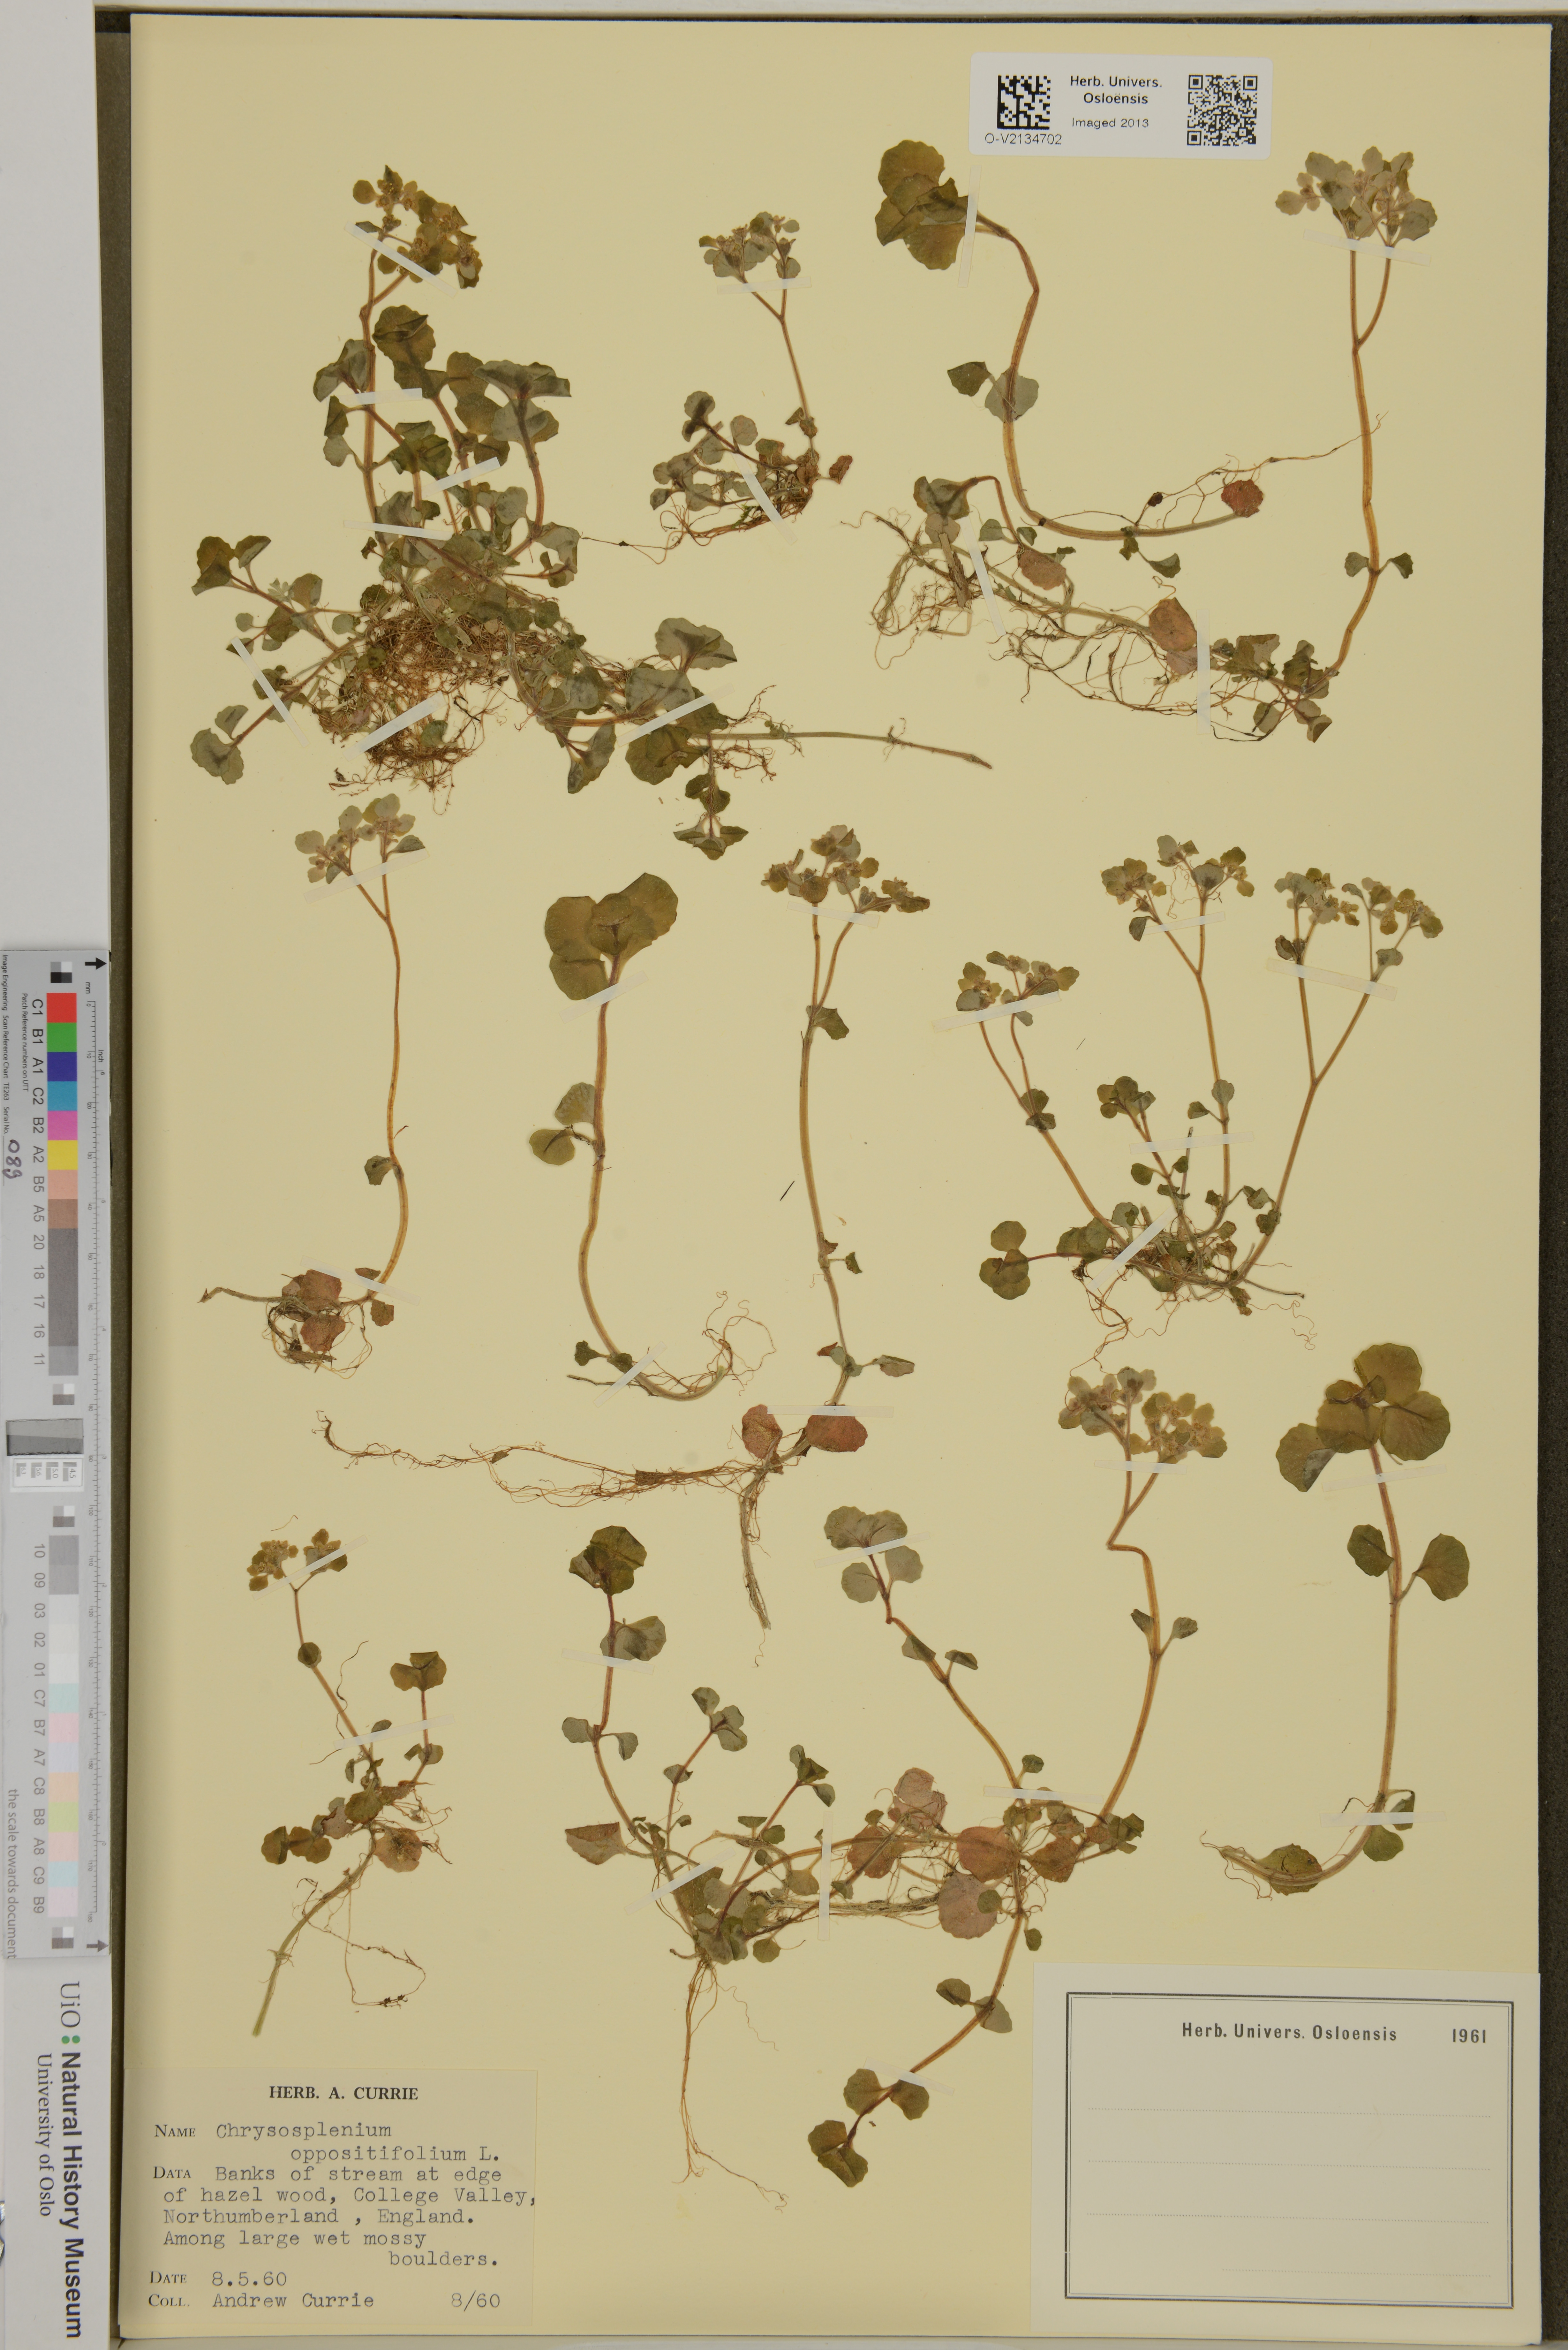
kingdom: Plantae
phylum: Tracheophyta
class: Magnoliopsida
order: Saxifragales
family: Saxifragaceae
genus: Chrysosplenium
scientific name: Chrysosplenium oppositifolium
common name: Opposite-leaved golden-saxifrage
